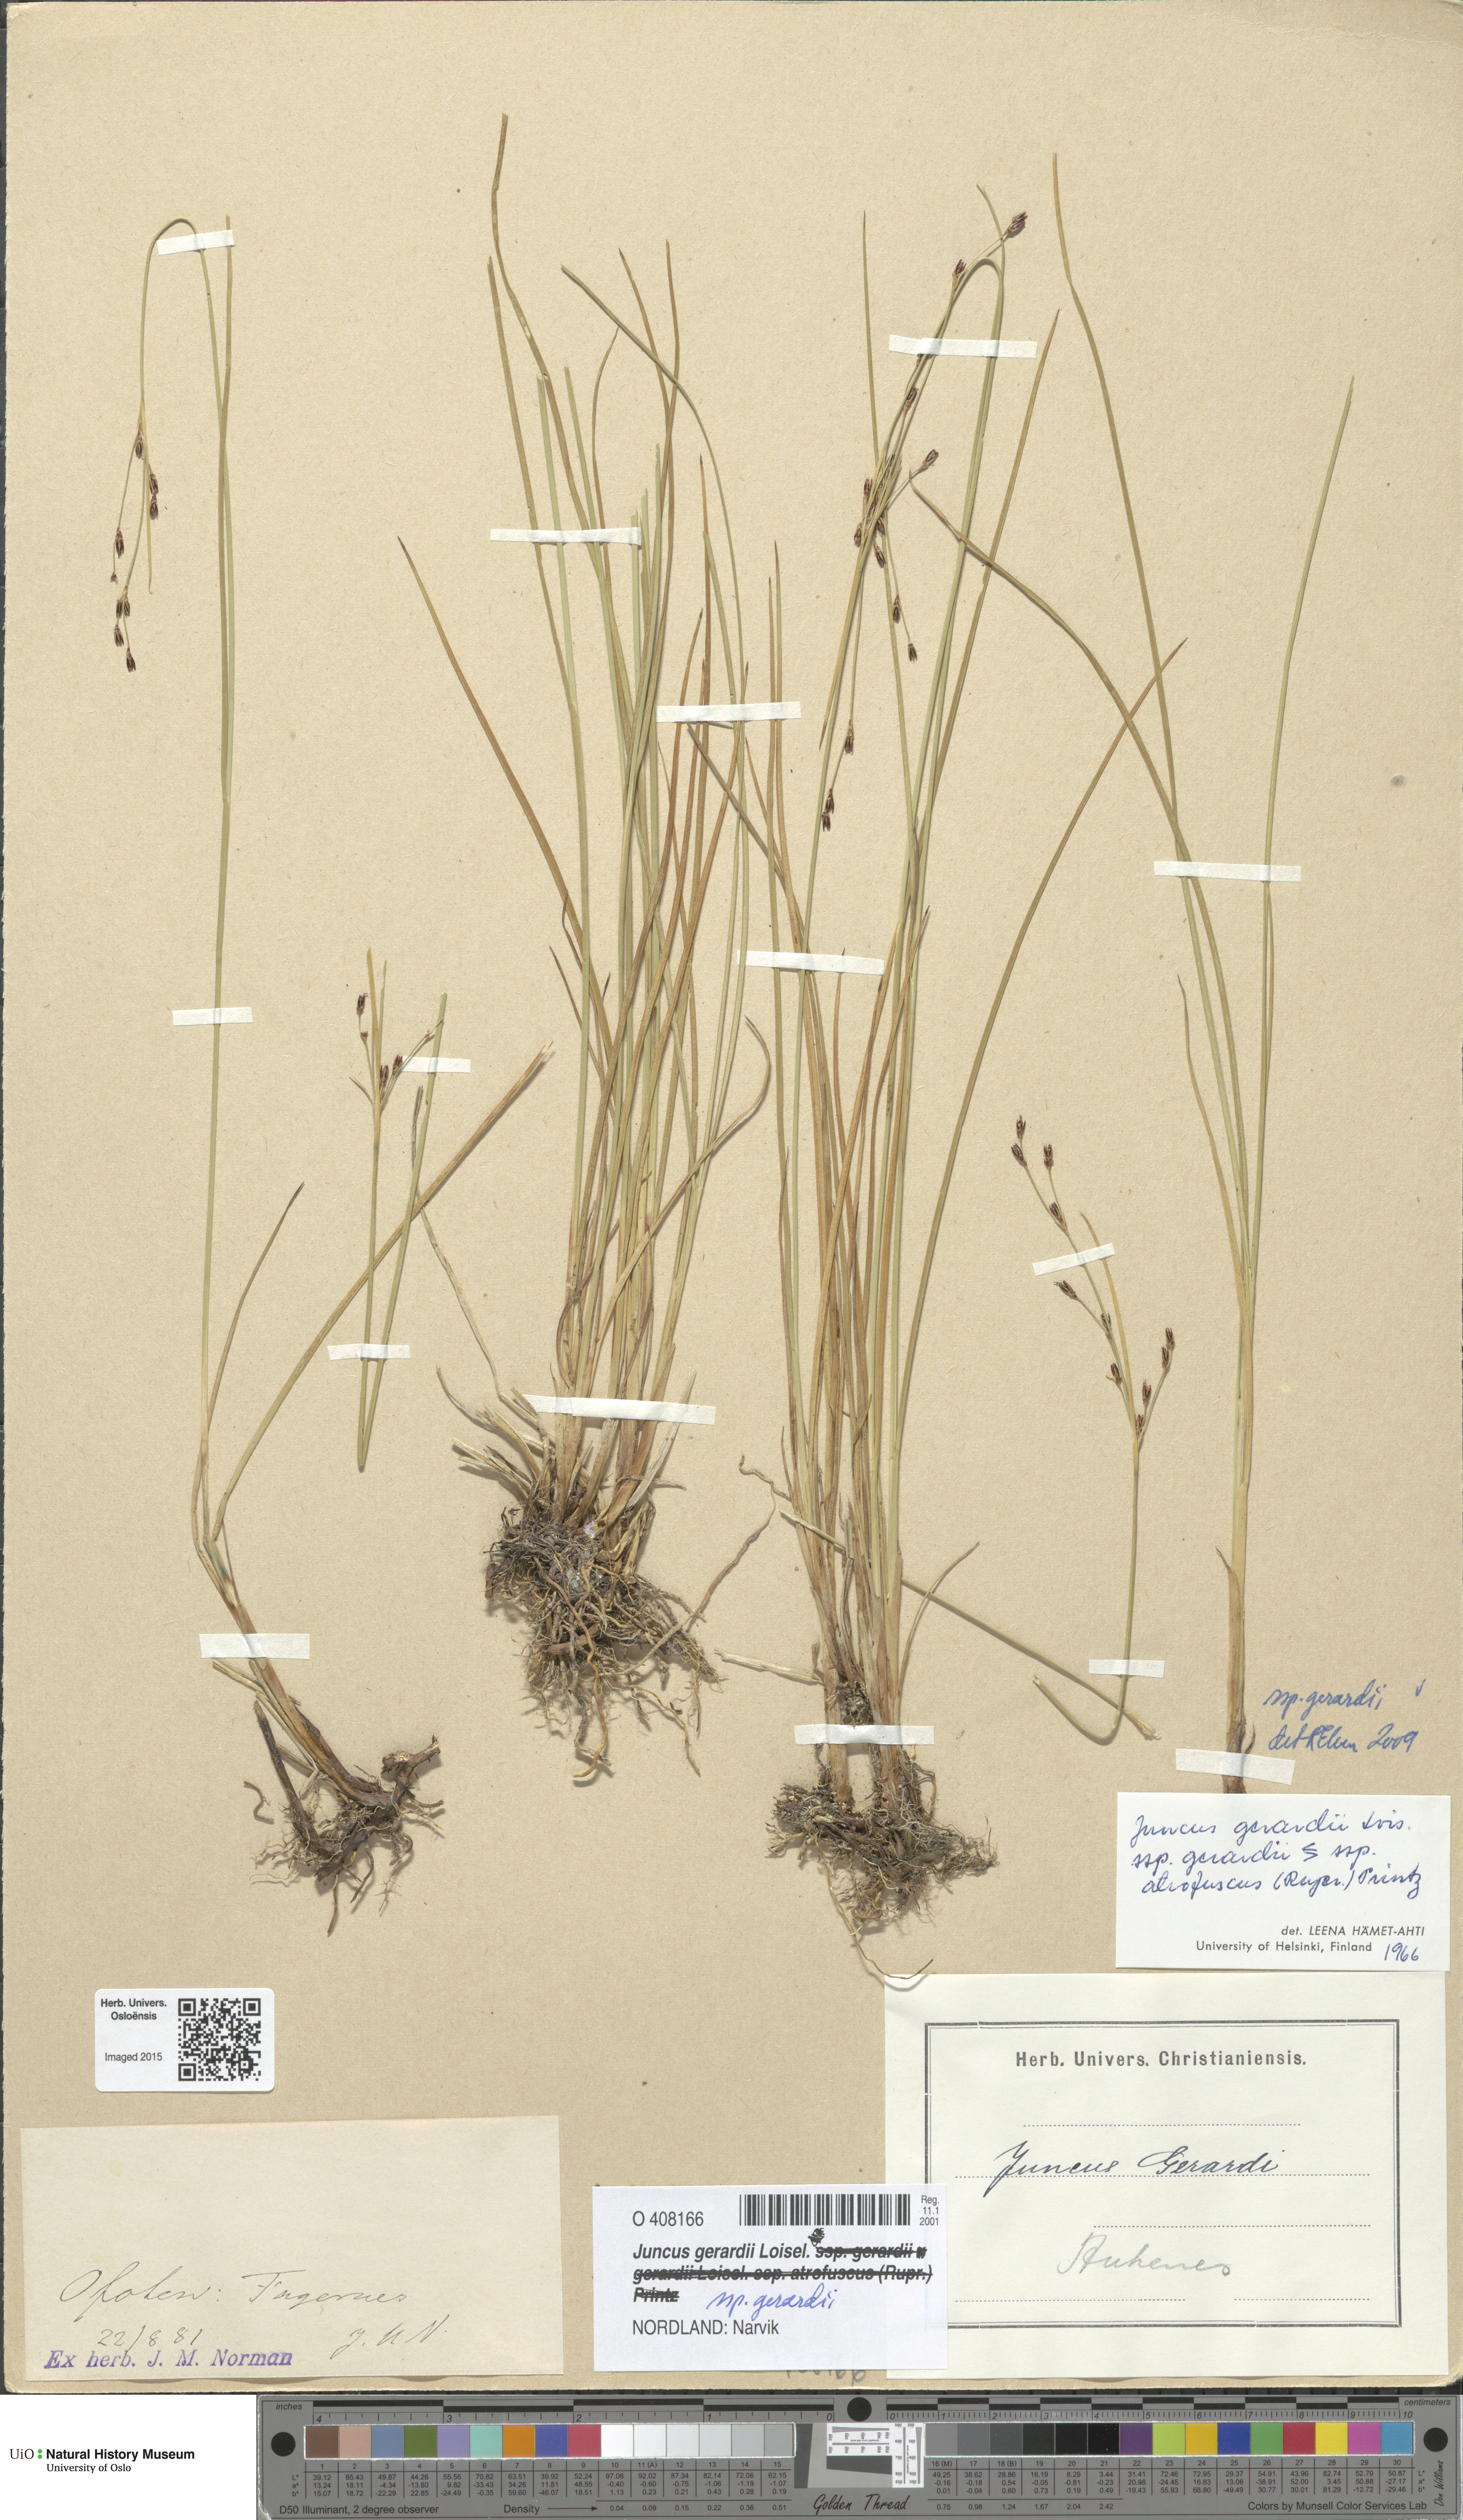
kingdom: Plantae
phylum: Tracheophyta
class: Liliopsida
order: Poales
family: Juncaceae
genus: Juncus
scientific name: Juncus gerardi
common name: Saltmarsh rush
